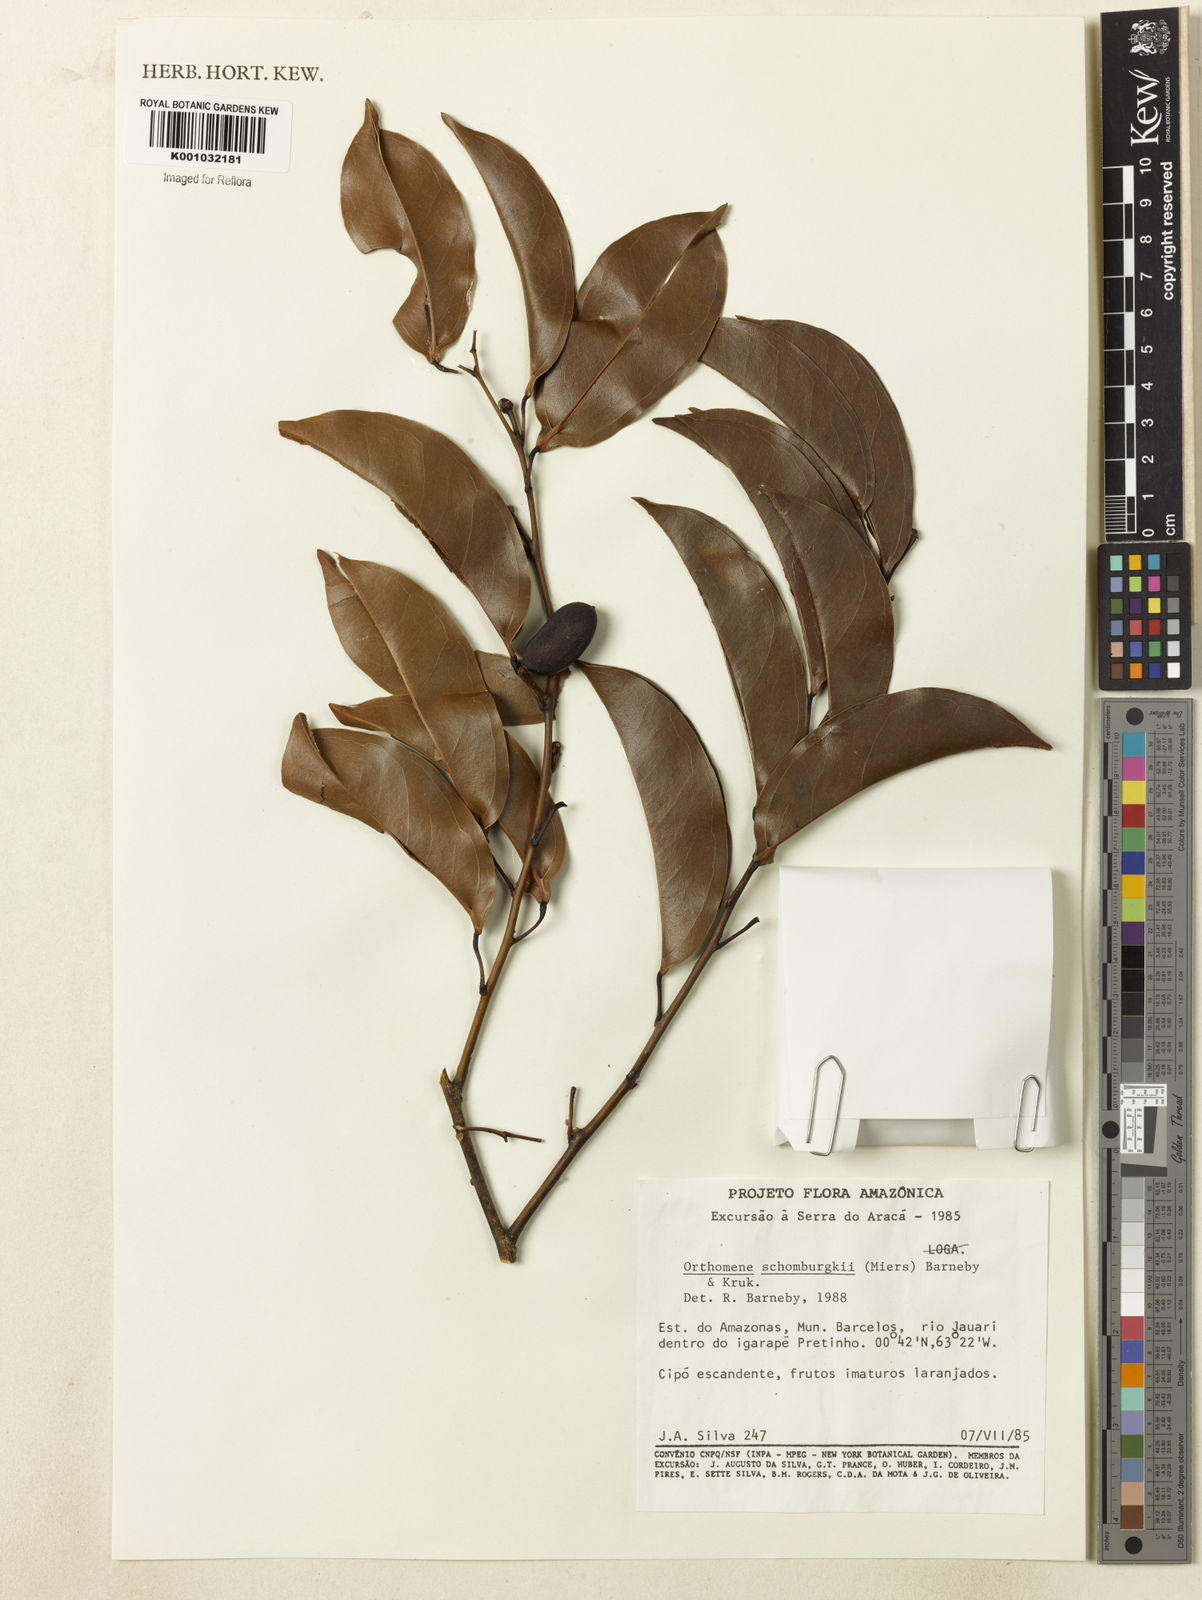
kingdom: Plantae
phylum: Tracheophyta
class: Magnoliopsida
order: Ranunculales
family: Menispermaceae
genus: Orthomene
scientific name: Orthomene schomburgkii
